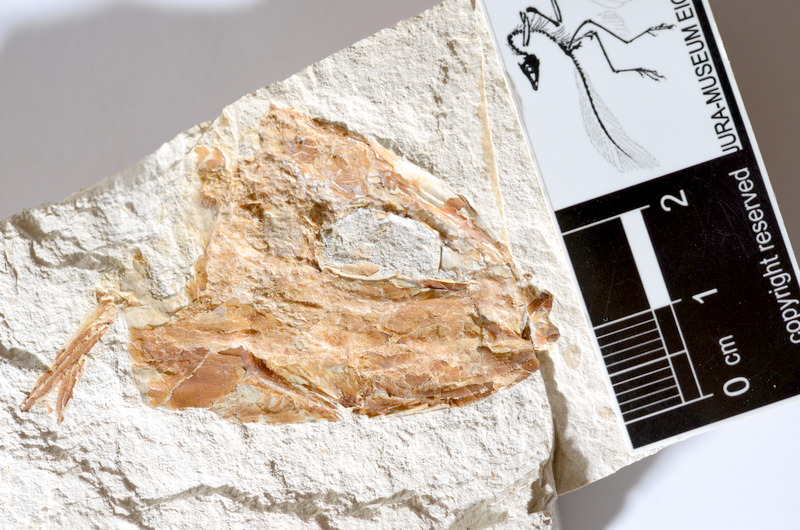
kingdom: Animalia
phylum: Chordata
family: Ascalaboidae
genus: Tharsis
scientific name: Tharsis dubius
